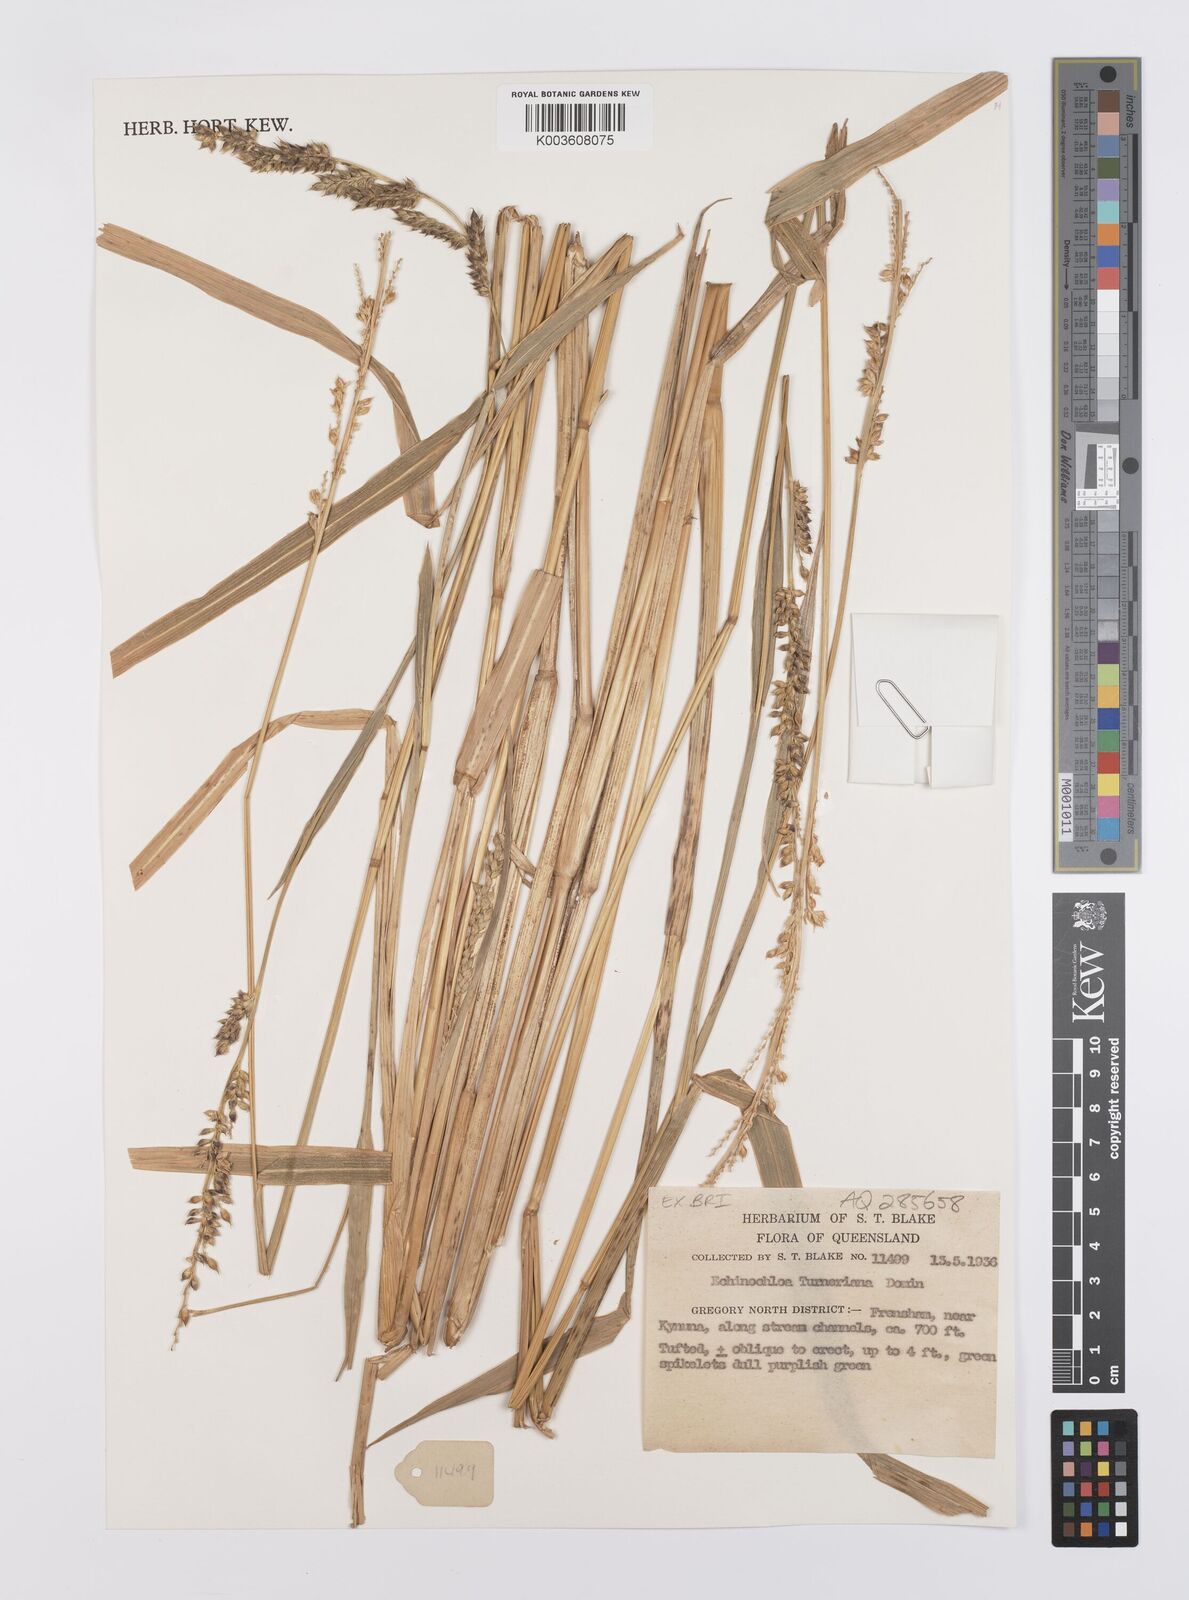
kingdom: Plantae
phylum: Tracheophyta
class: Liliopsida
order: Poales
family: Poaceae
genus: Echinochloa
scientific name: Echinochloa turneriana
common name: Channel millet
